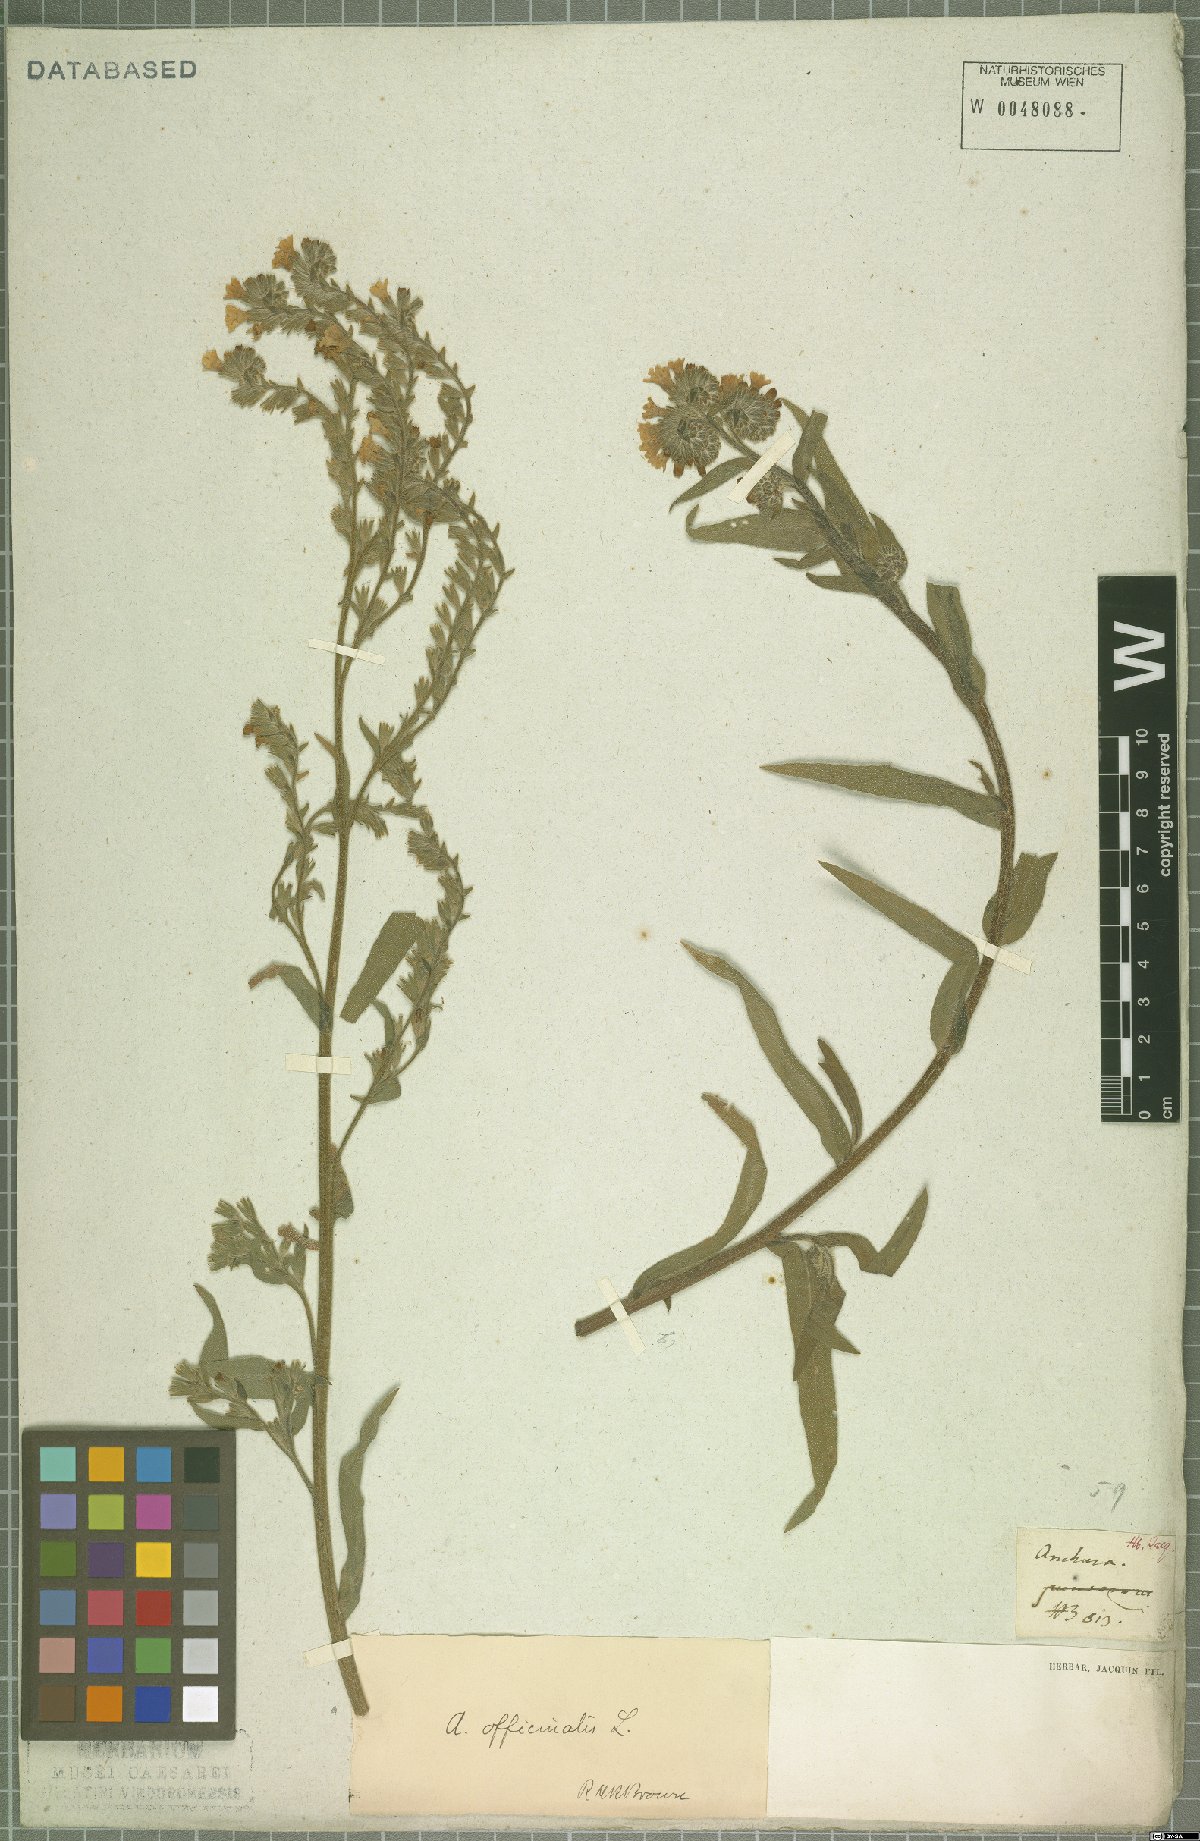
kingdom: Plantae
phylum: Tracheophyta
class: Magnoliopsida
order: Boraginales
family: Boraginaceae
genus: Anchusa
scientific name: Anchusa officinalis
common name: Alkanet
